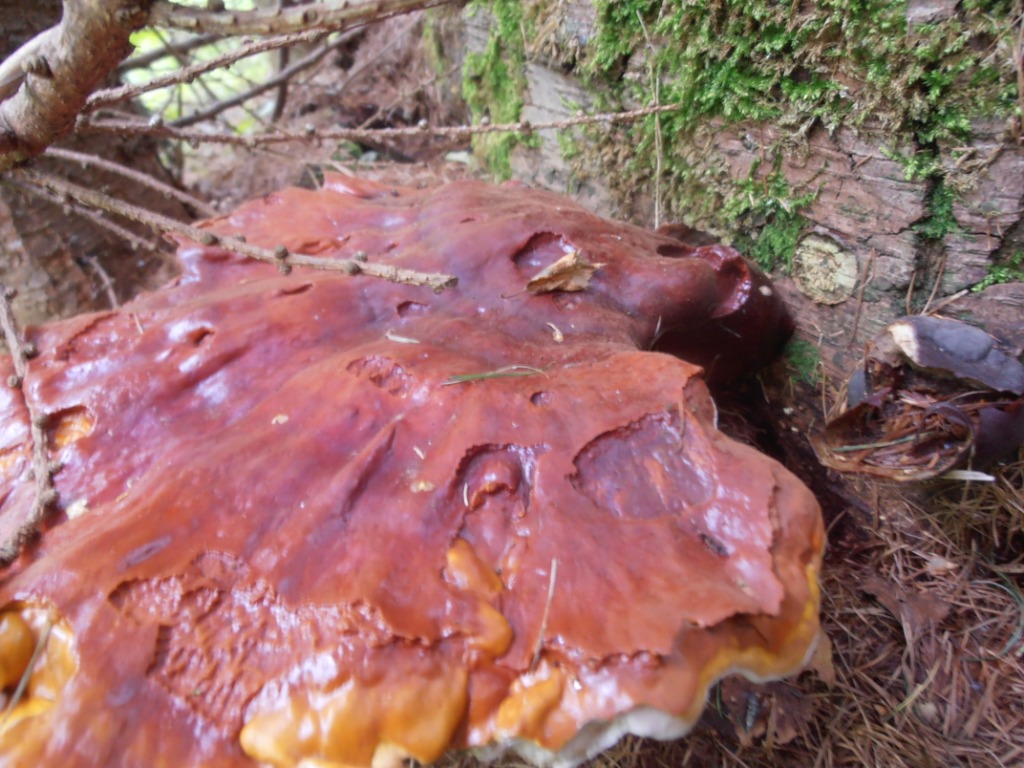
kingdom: Fungi
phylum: Basidiomycota
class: Agaricomycetes
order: Polyporales
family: Polyporaceae
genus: Ganoderma
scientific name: Ganoderma lucidum
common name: skinnende lakporesvamp
